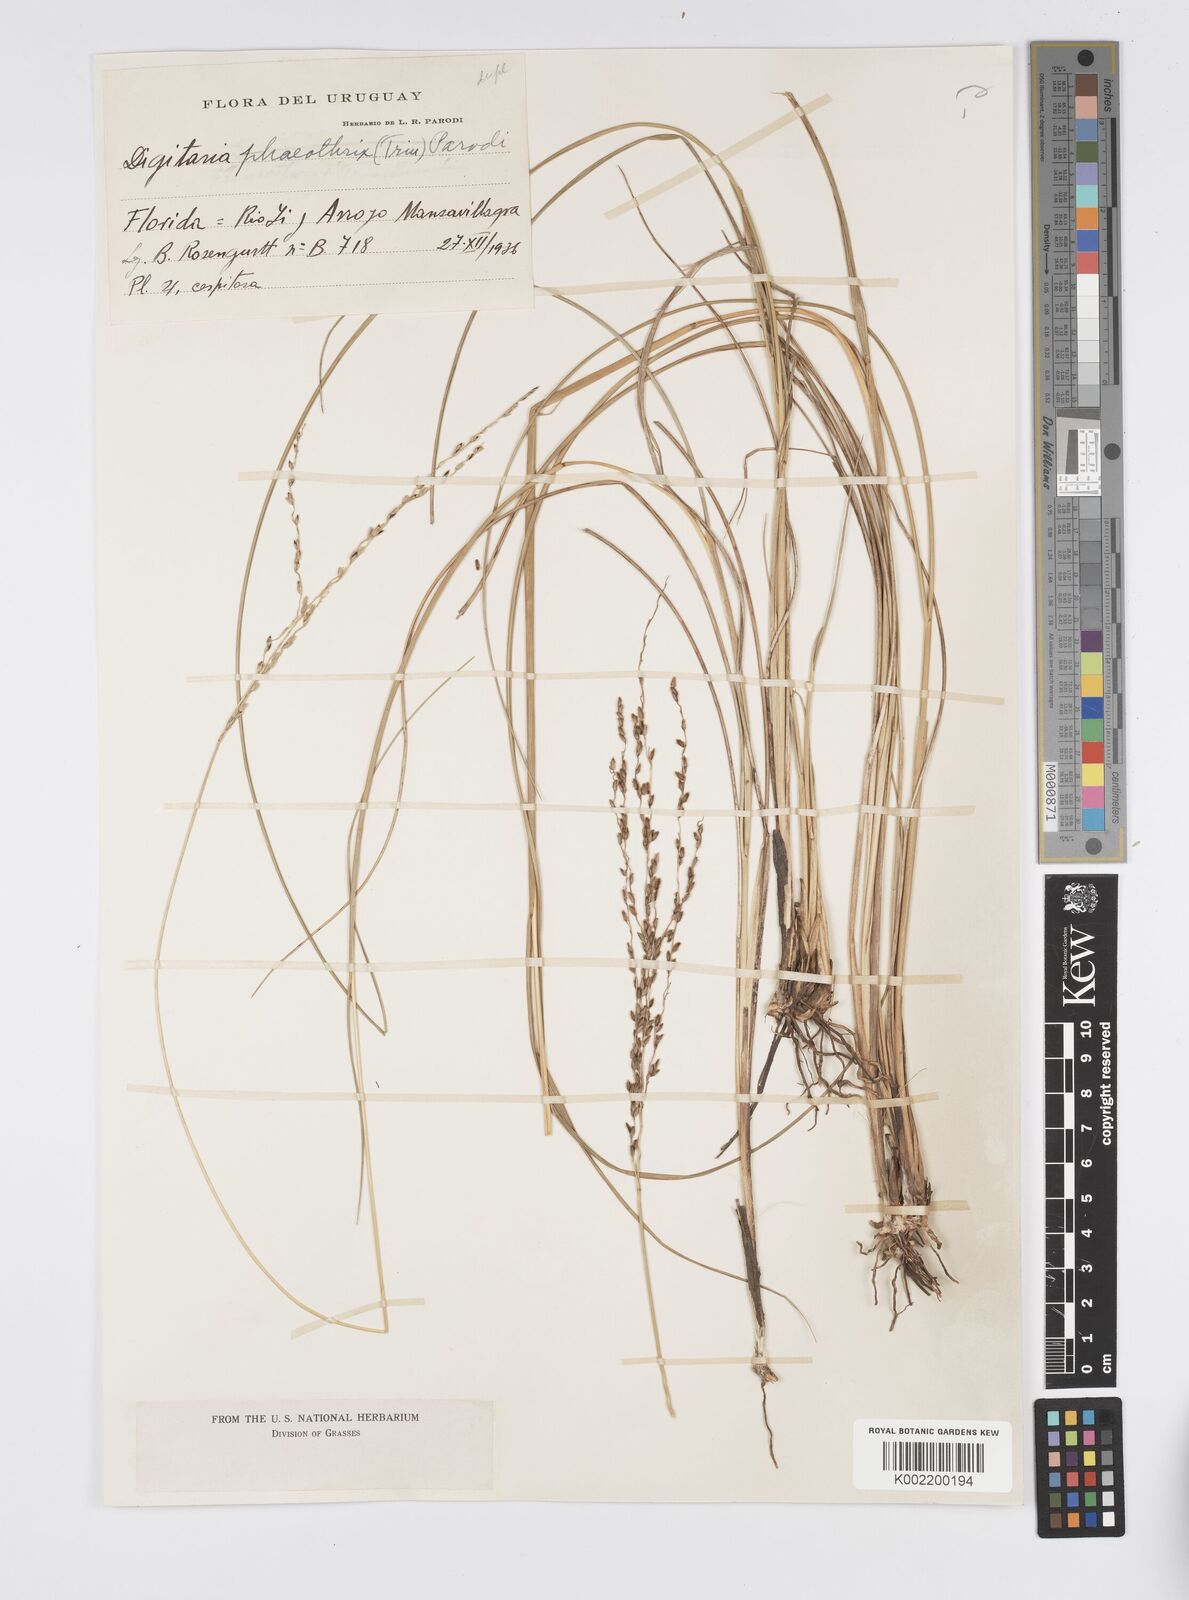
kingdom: Plantae
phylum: Tracheophyta
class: Liliopsida
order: Poales
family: Poaceae
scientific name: Poaceae
